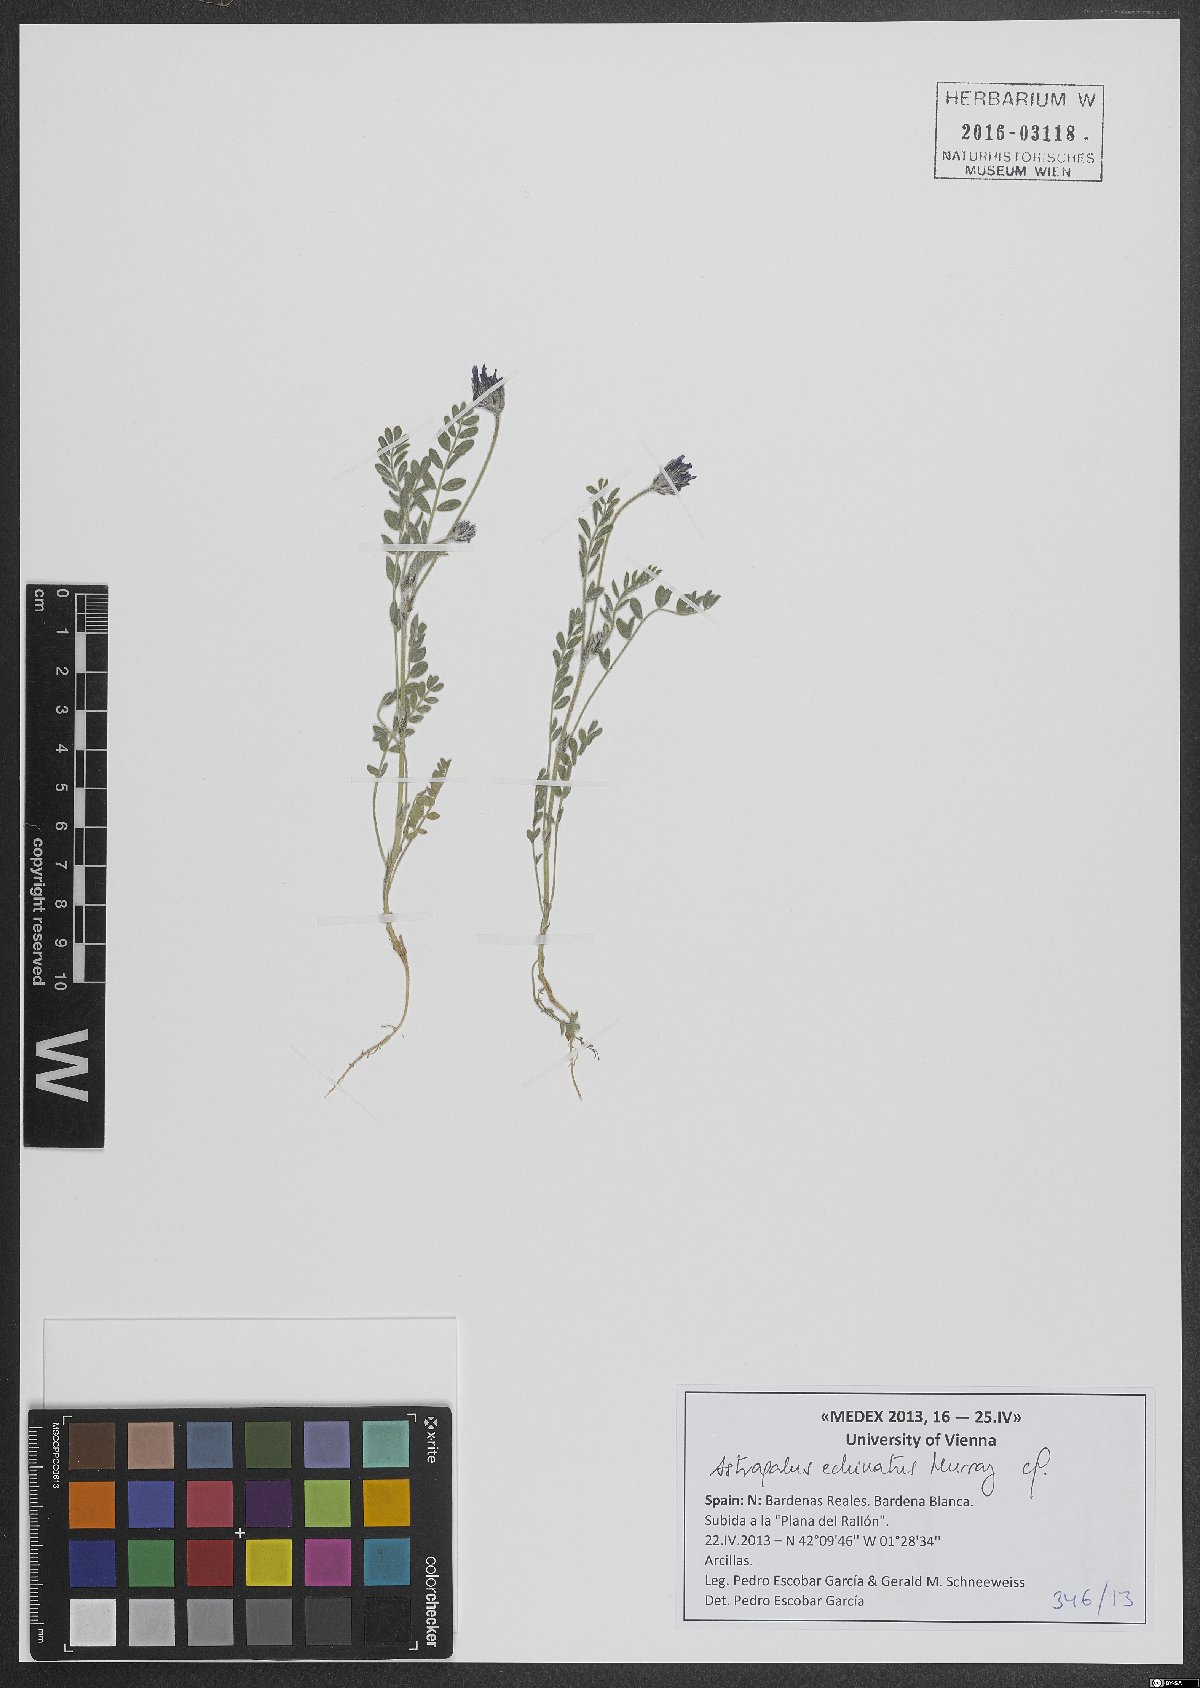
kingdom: Plantae
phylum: Tracheophyta
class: Magnoliopsida
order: Fabales
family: Fabaceae
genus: Astragalus
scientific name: Astragalus echinatus
